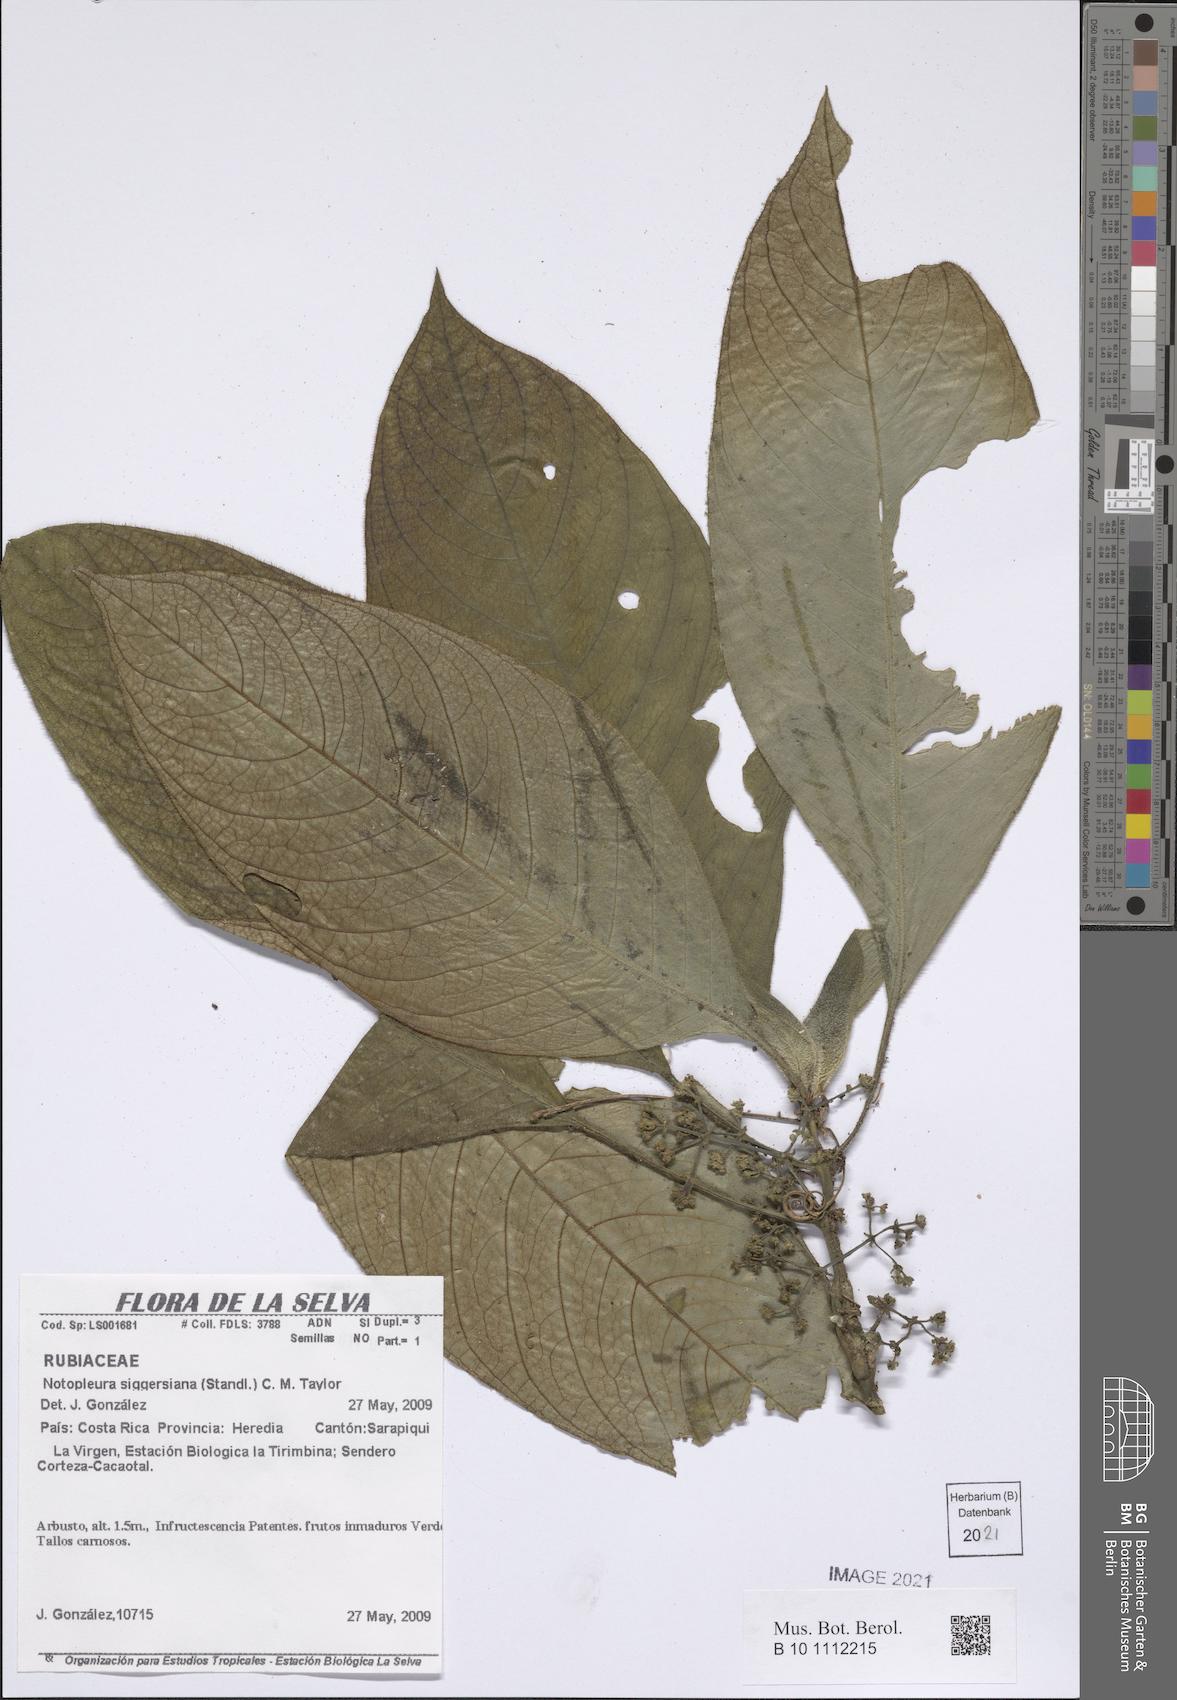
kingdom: Plantae
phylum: Tracheophyta
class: Magnoliopsida
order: Gentianales
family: Rubiaceae
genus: Notopleura
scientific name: Notopleura siggersiana
